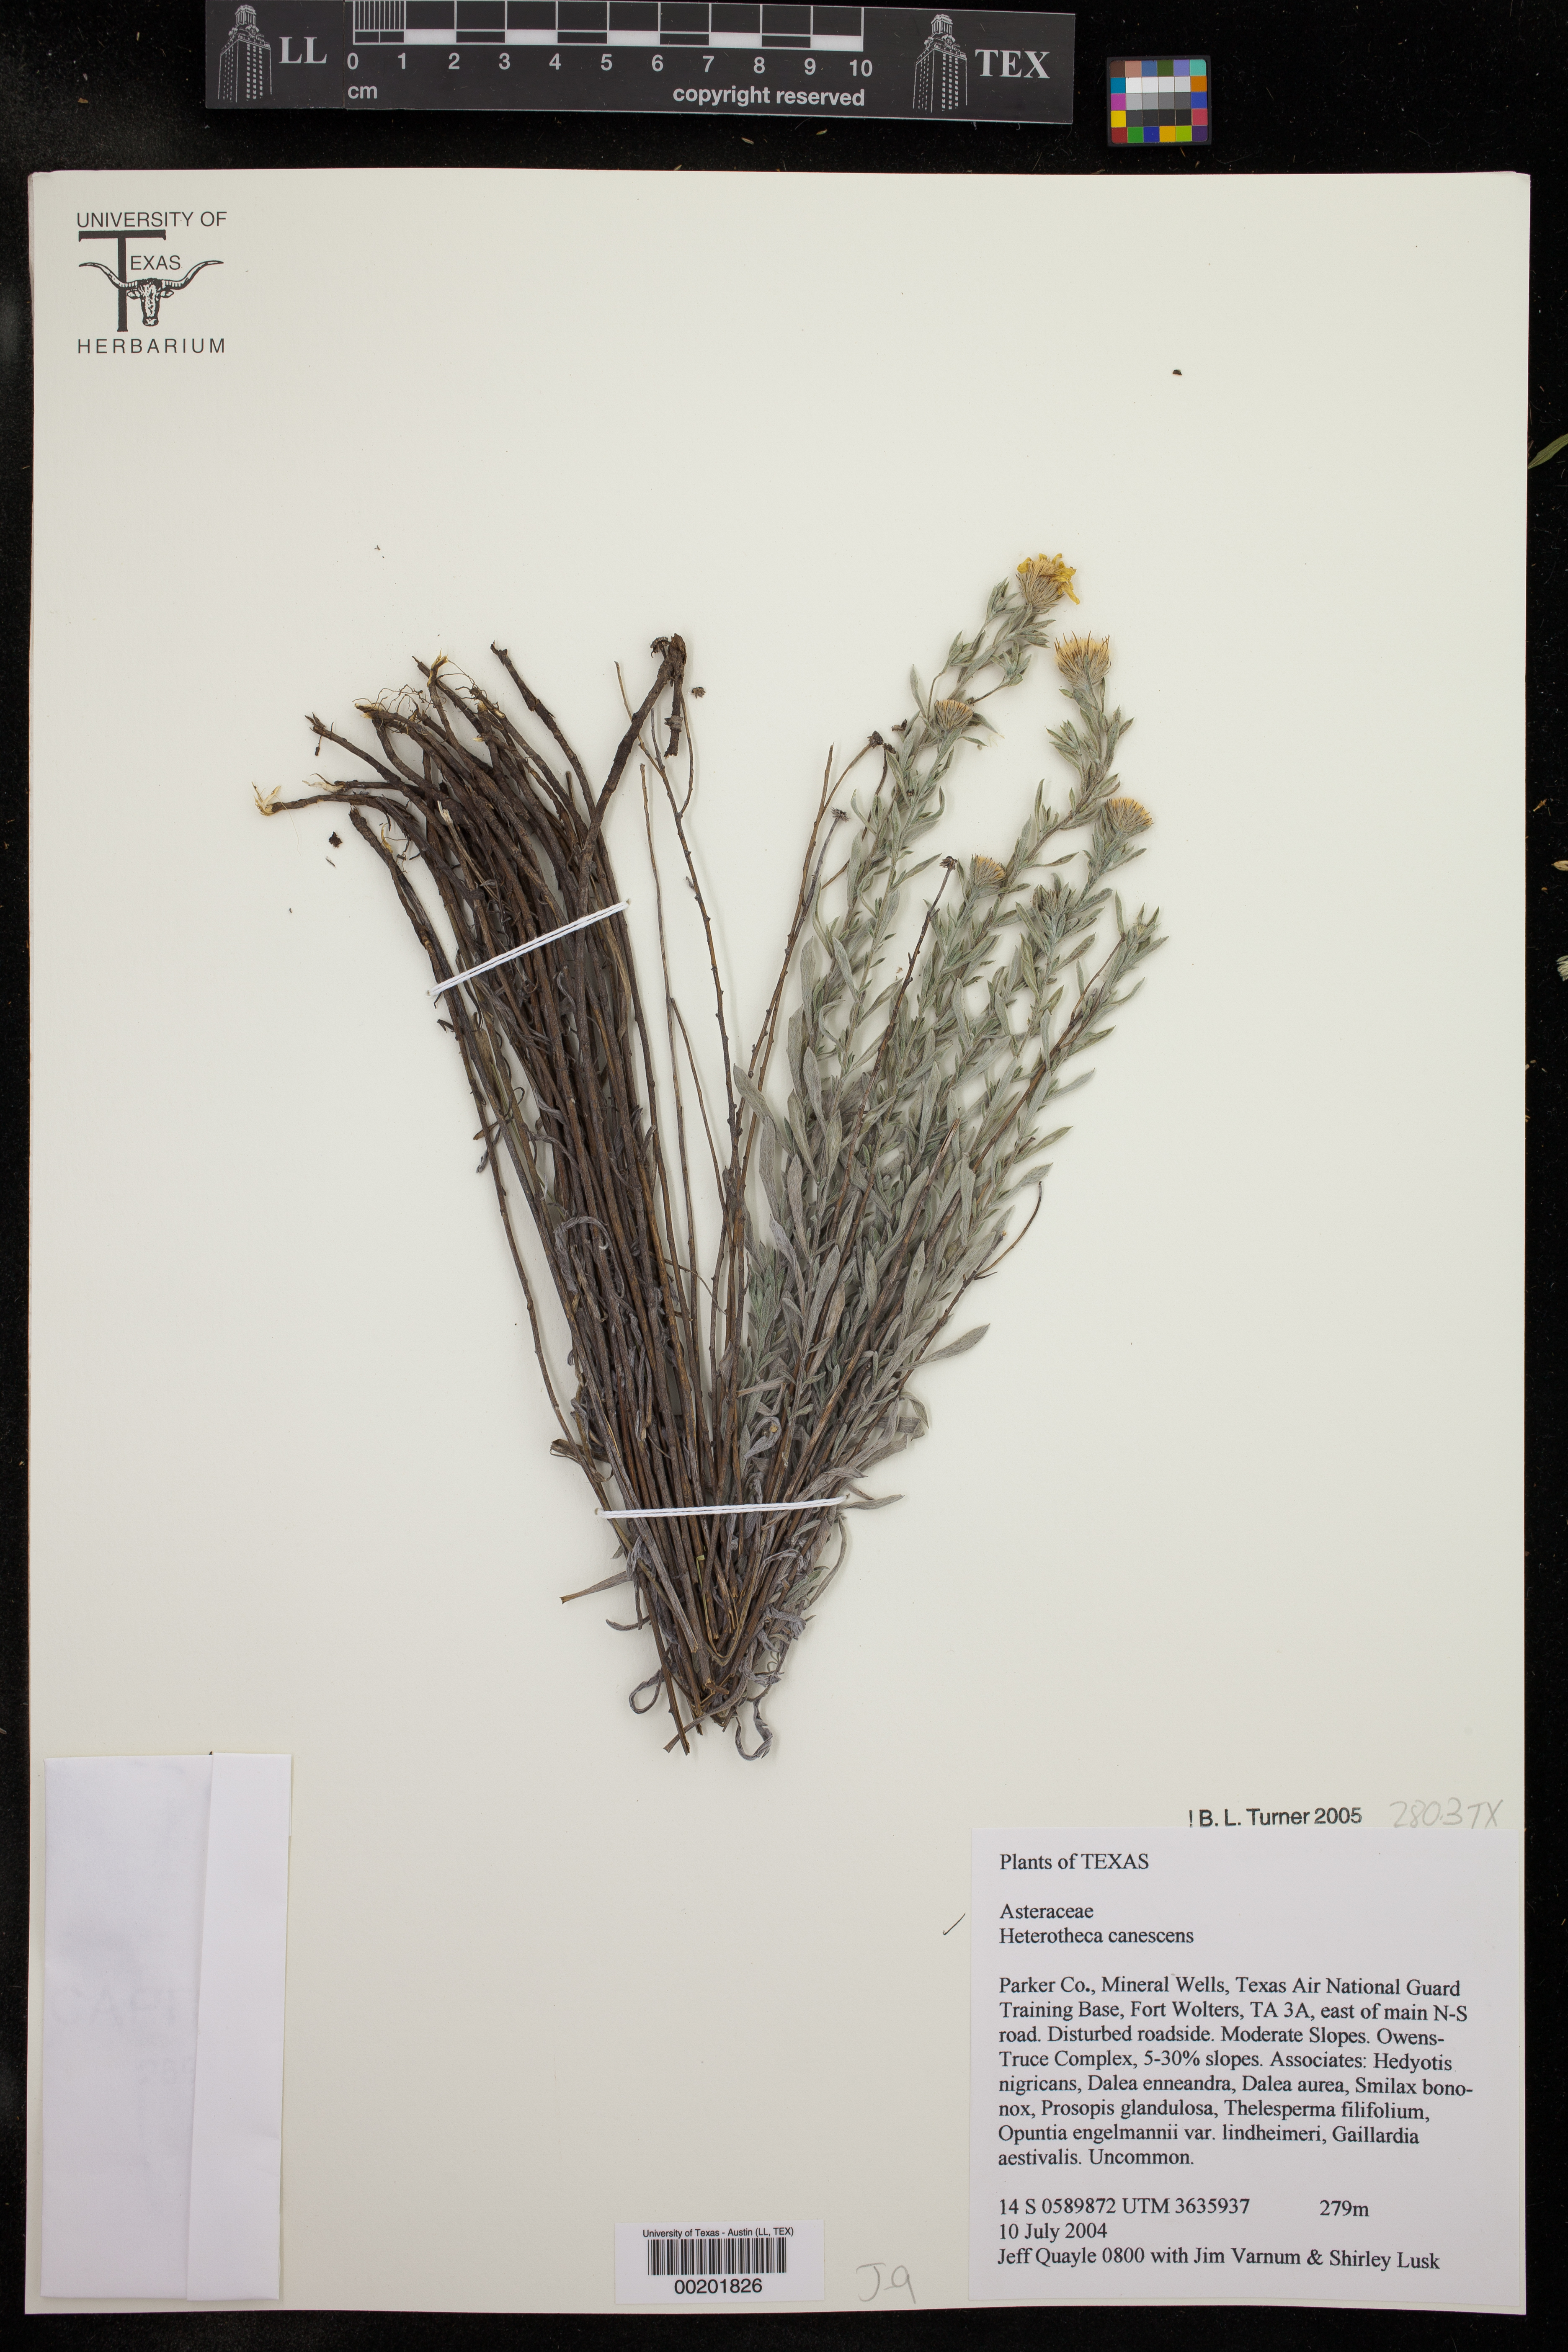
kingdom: Plantae
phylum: Tracheophyta
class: Magnoliopsida
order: Asterales
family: Asteraceae
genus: Heterotheca
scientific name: Heterotheca canescens
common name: Hoary golden-aster
